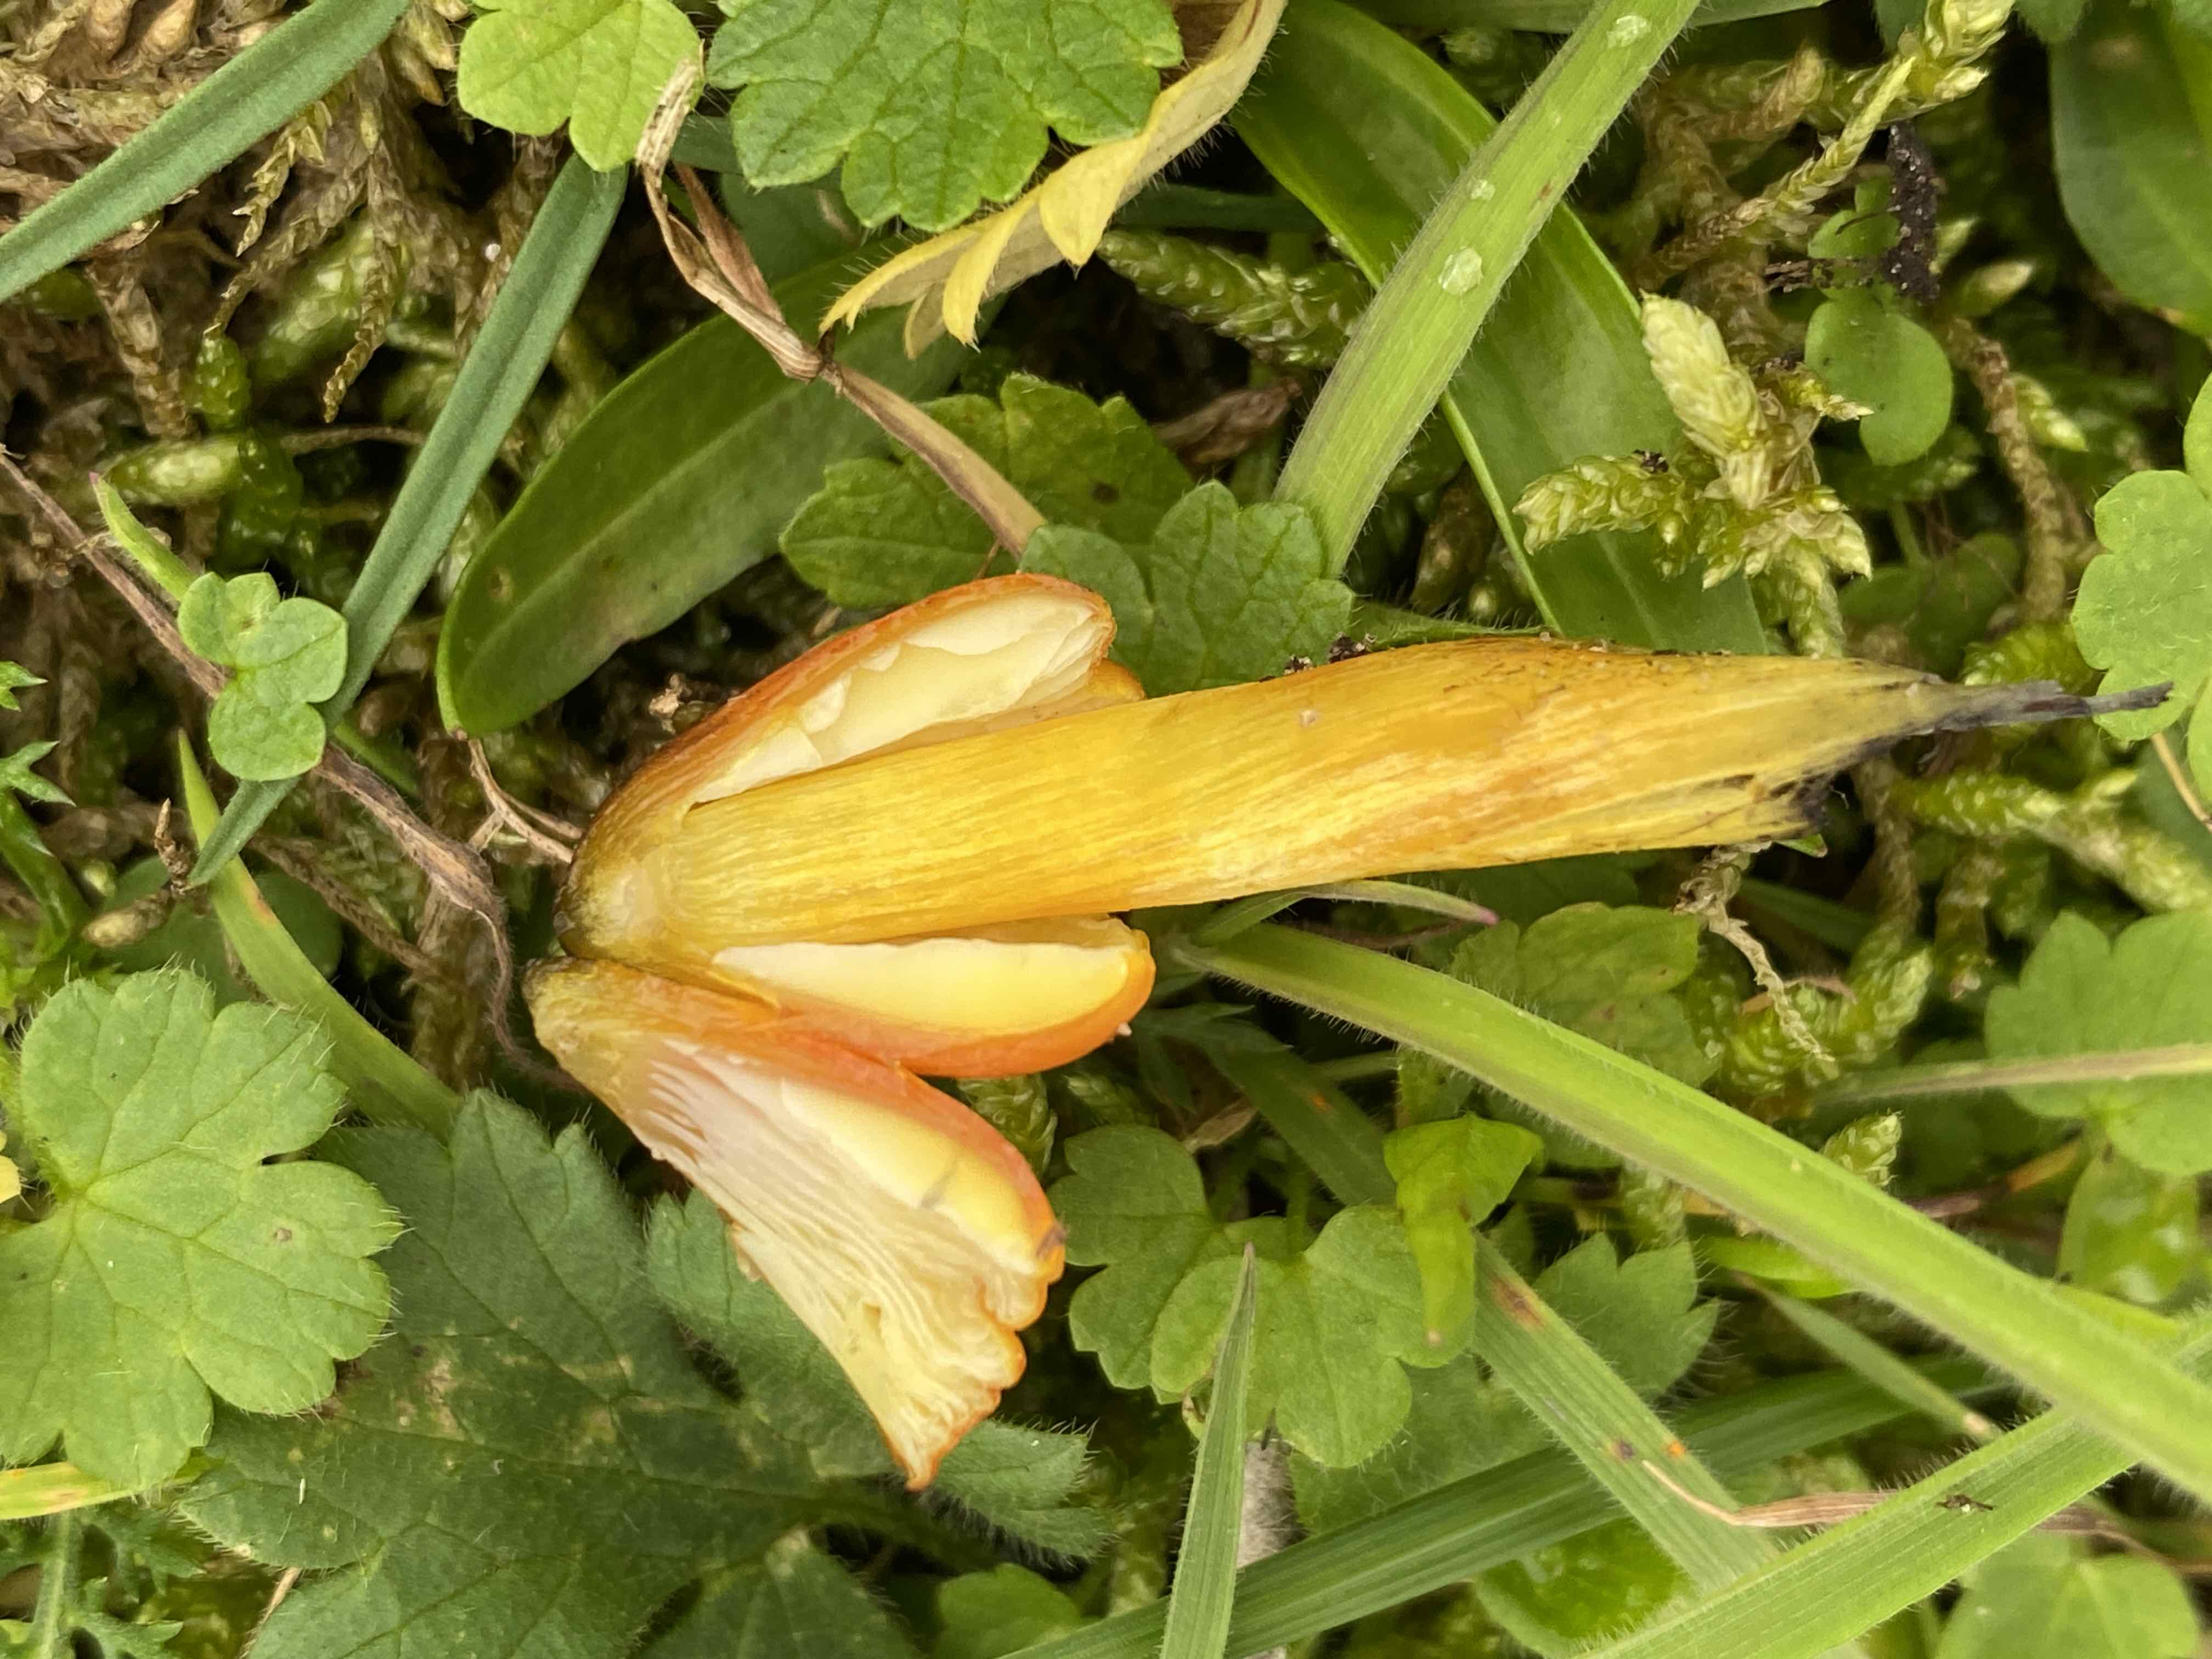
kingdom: Fungi
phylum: Basidiomycota
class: Agaricomycetes
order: Agaricales
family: Hygrophoraceae
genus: Hygrocybe
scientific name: Hygrocybe conica
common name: kegle-vokshat
